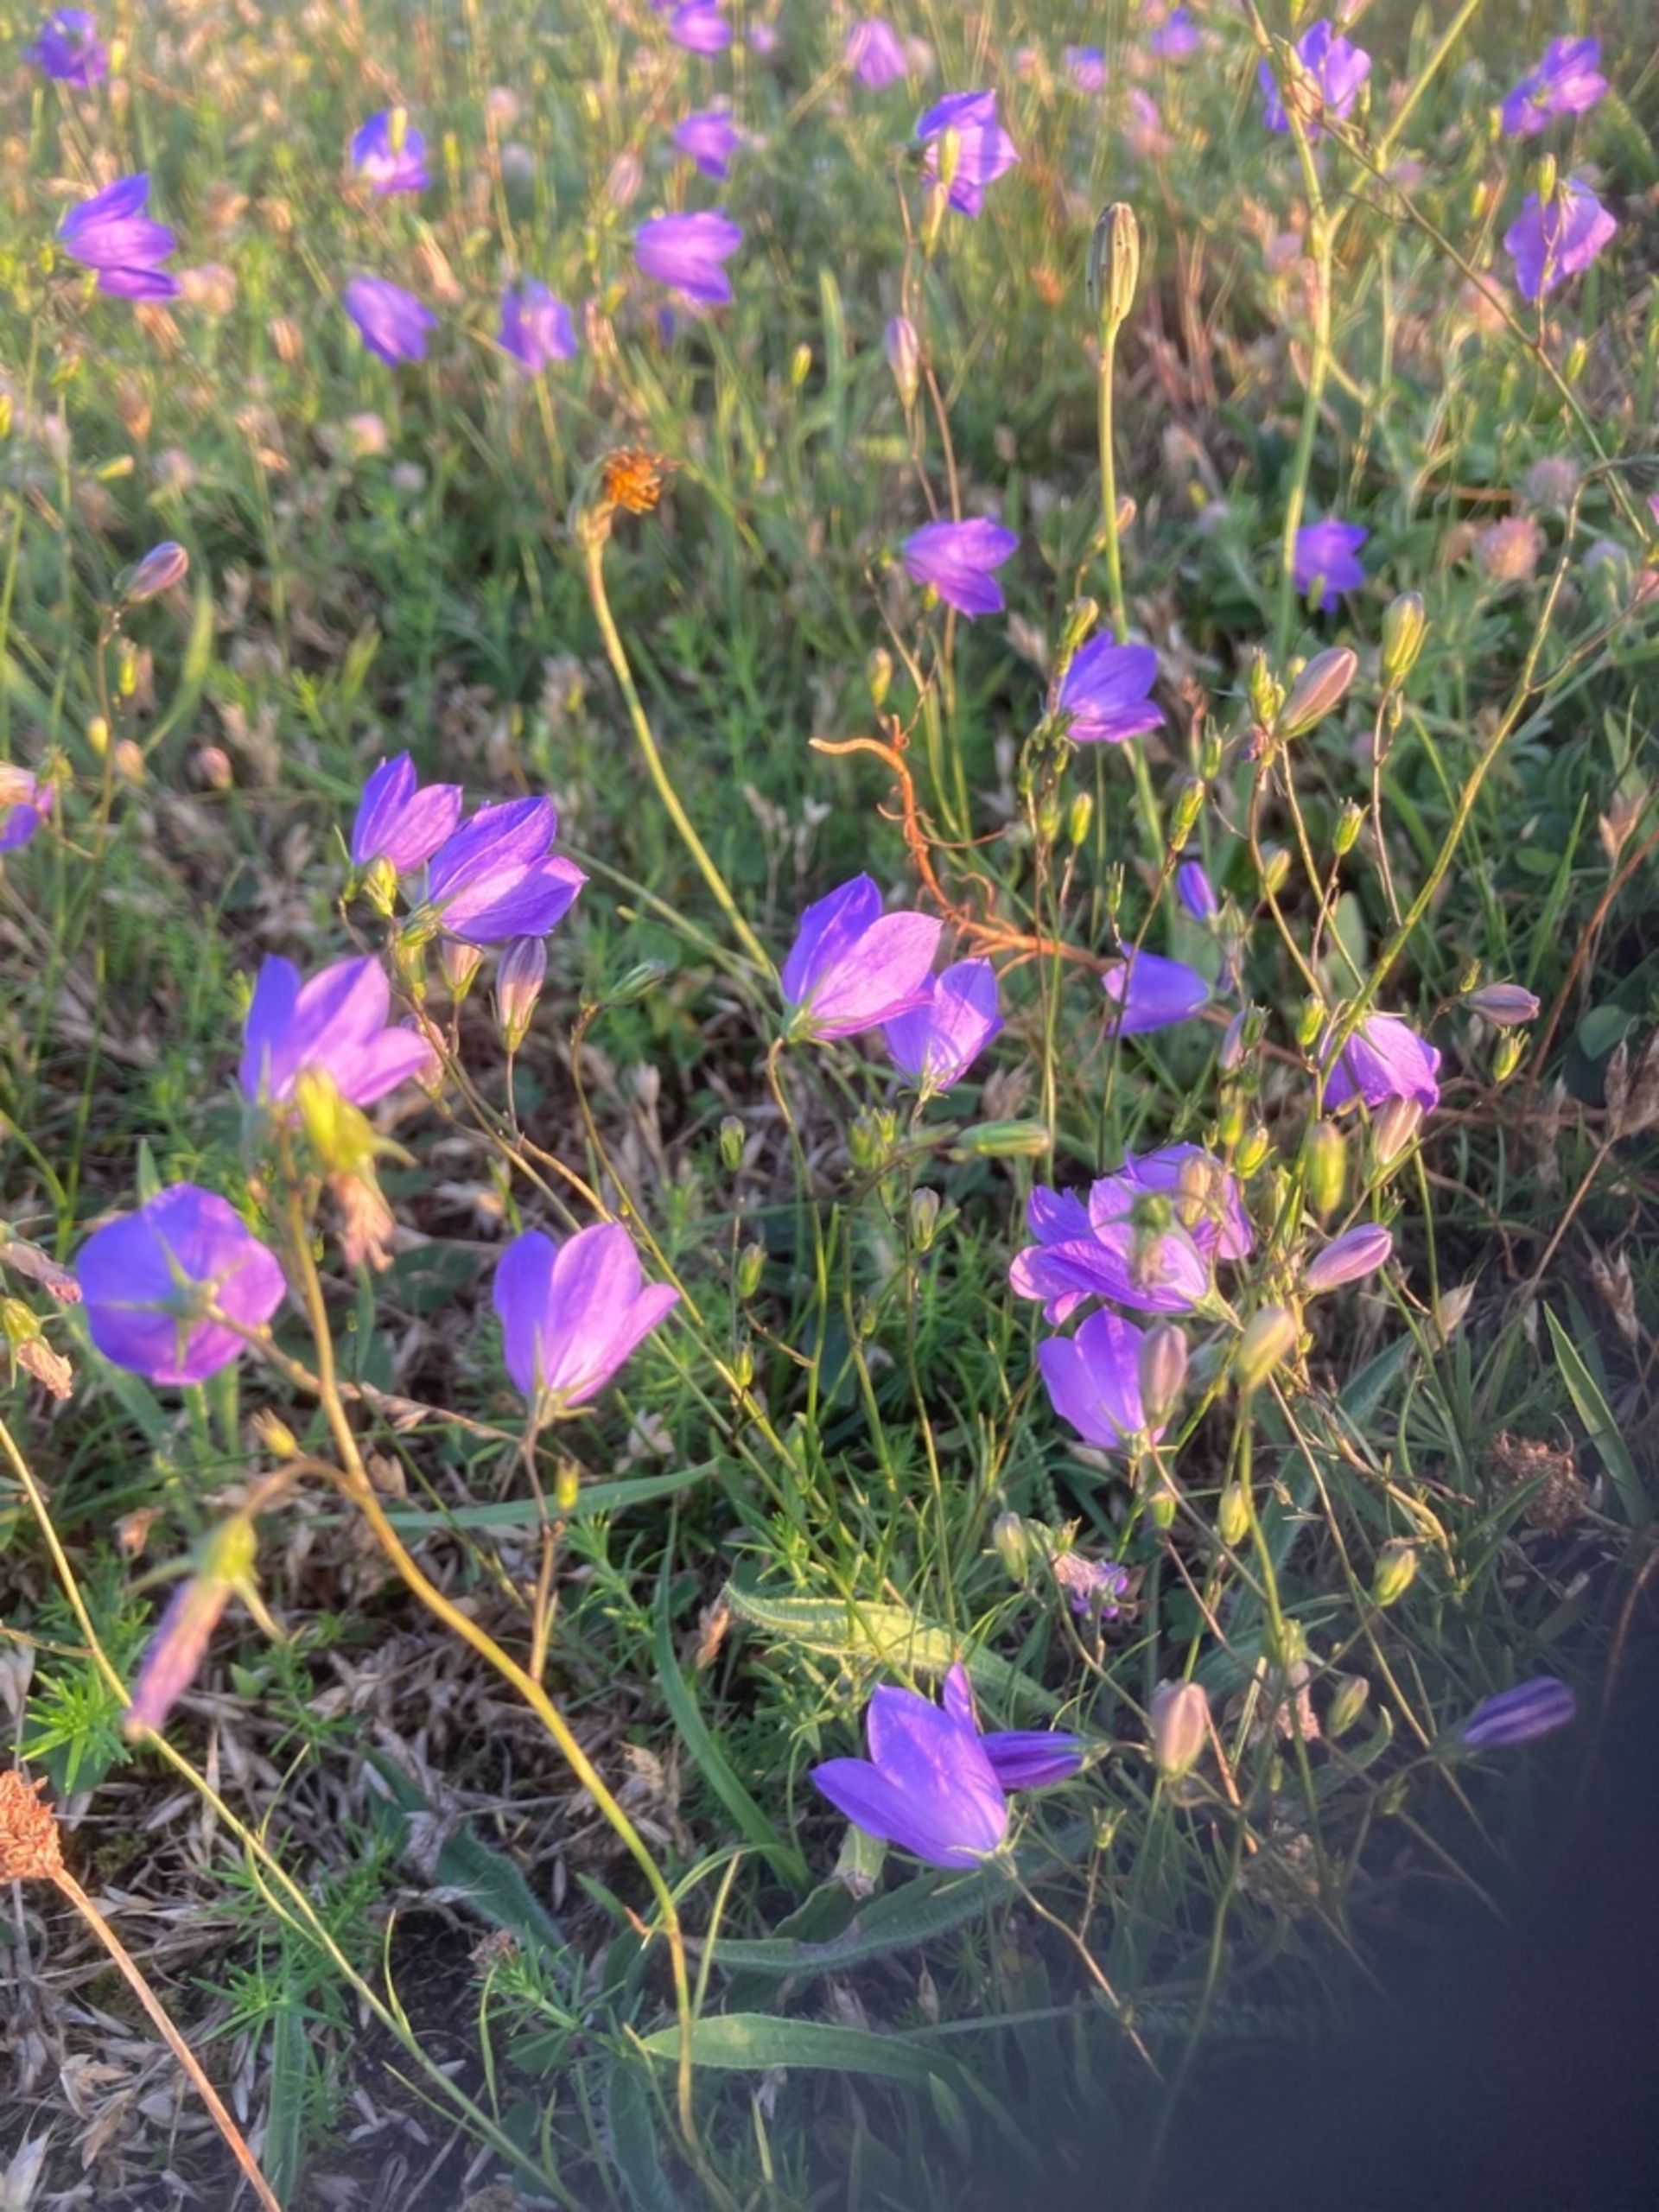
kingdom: Plantae
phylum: Tracheophyta
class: Magnoliopsida
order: Asterales
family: Campanulaceae
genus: Campanula
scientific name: Campanula rotundifolia
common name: Liden klokke
